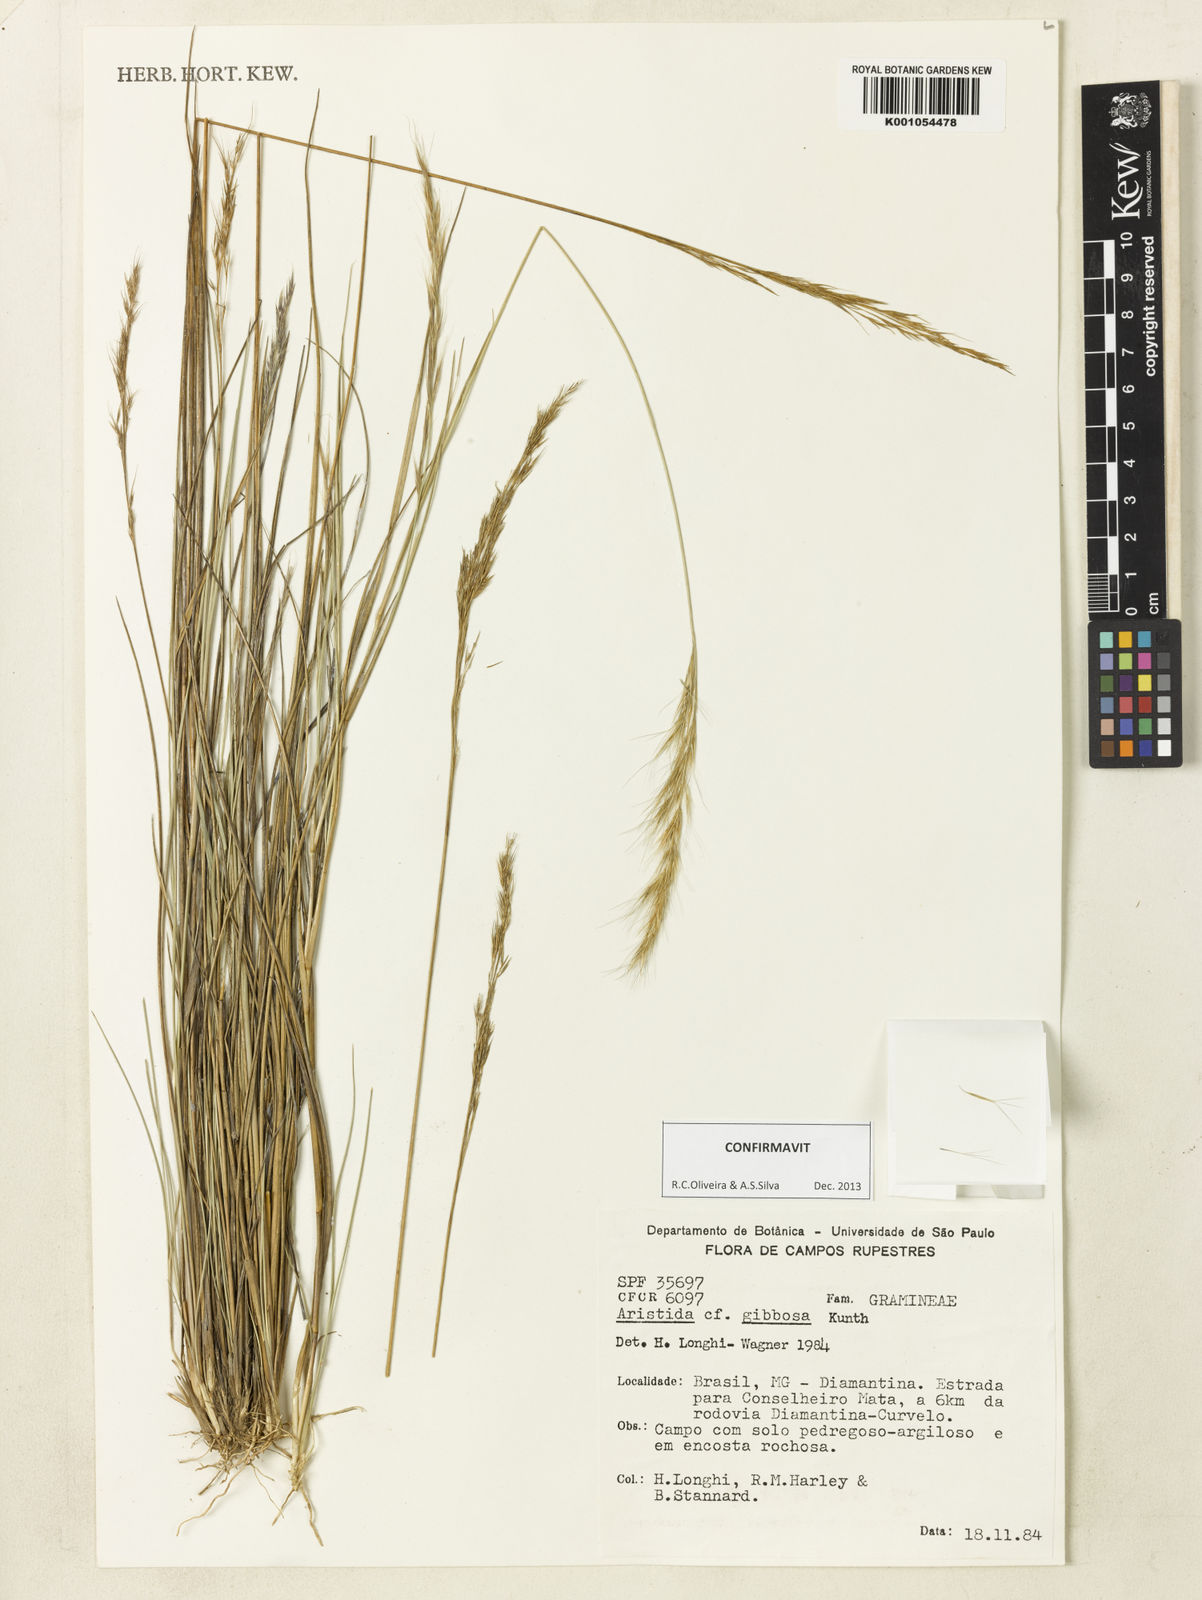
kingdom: Plantae
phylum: Tracheophyta
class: Liliopsida
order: Poales
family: Poaceae
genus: Aristida
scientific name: Aristida gibbosa
